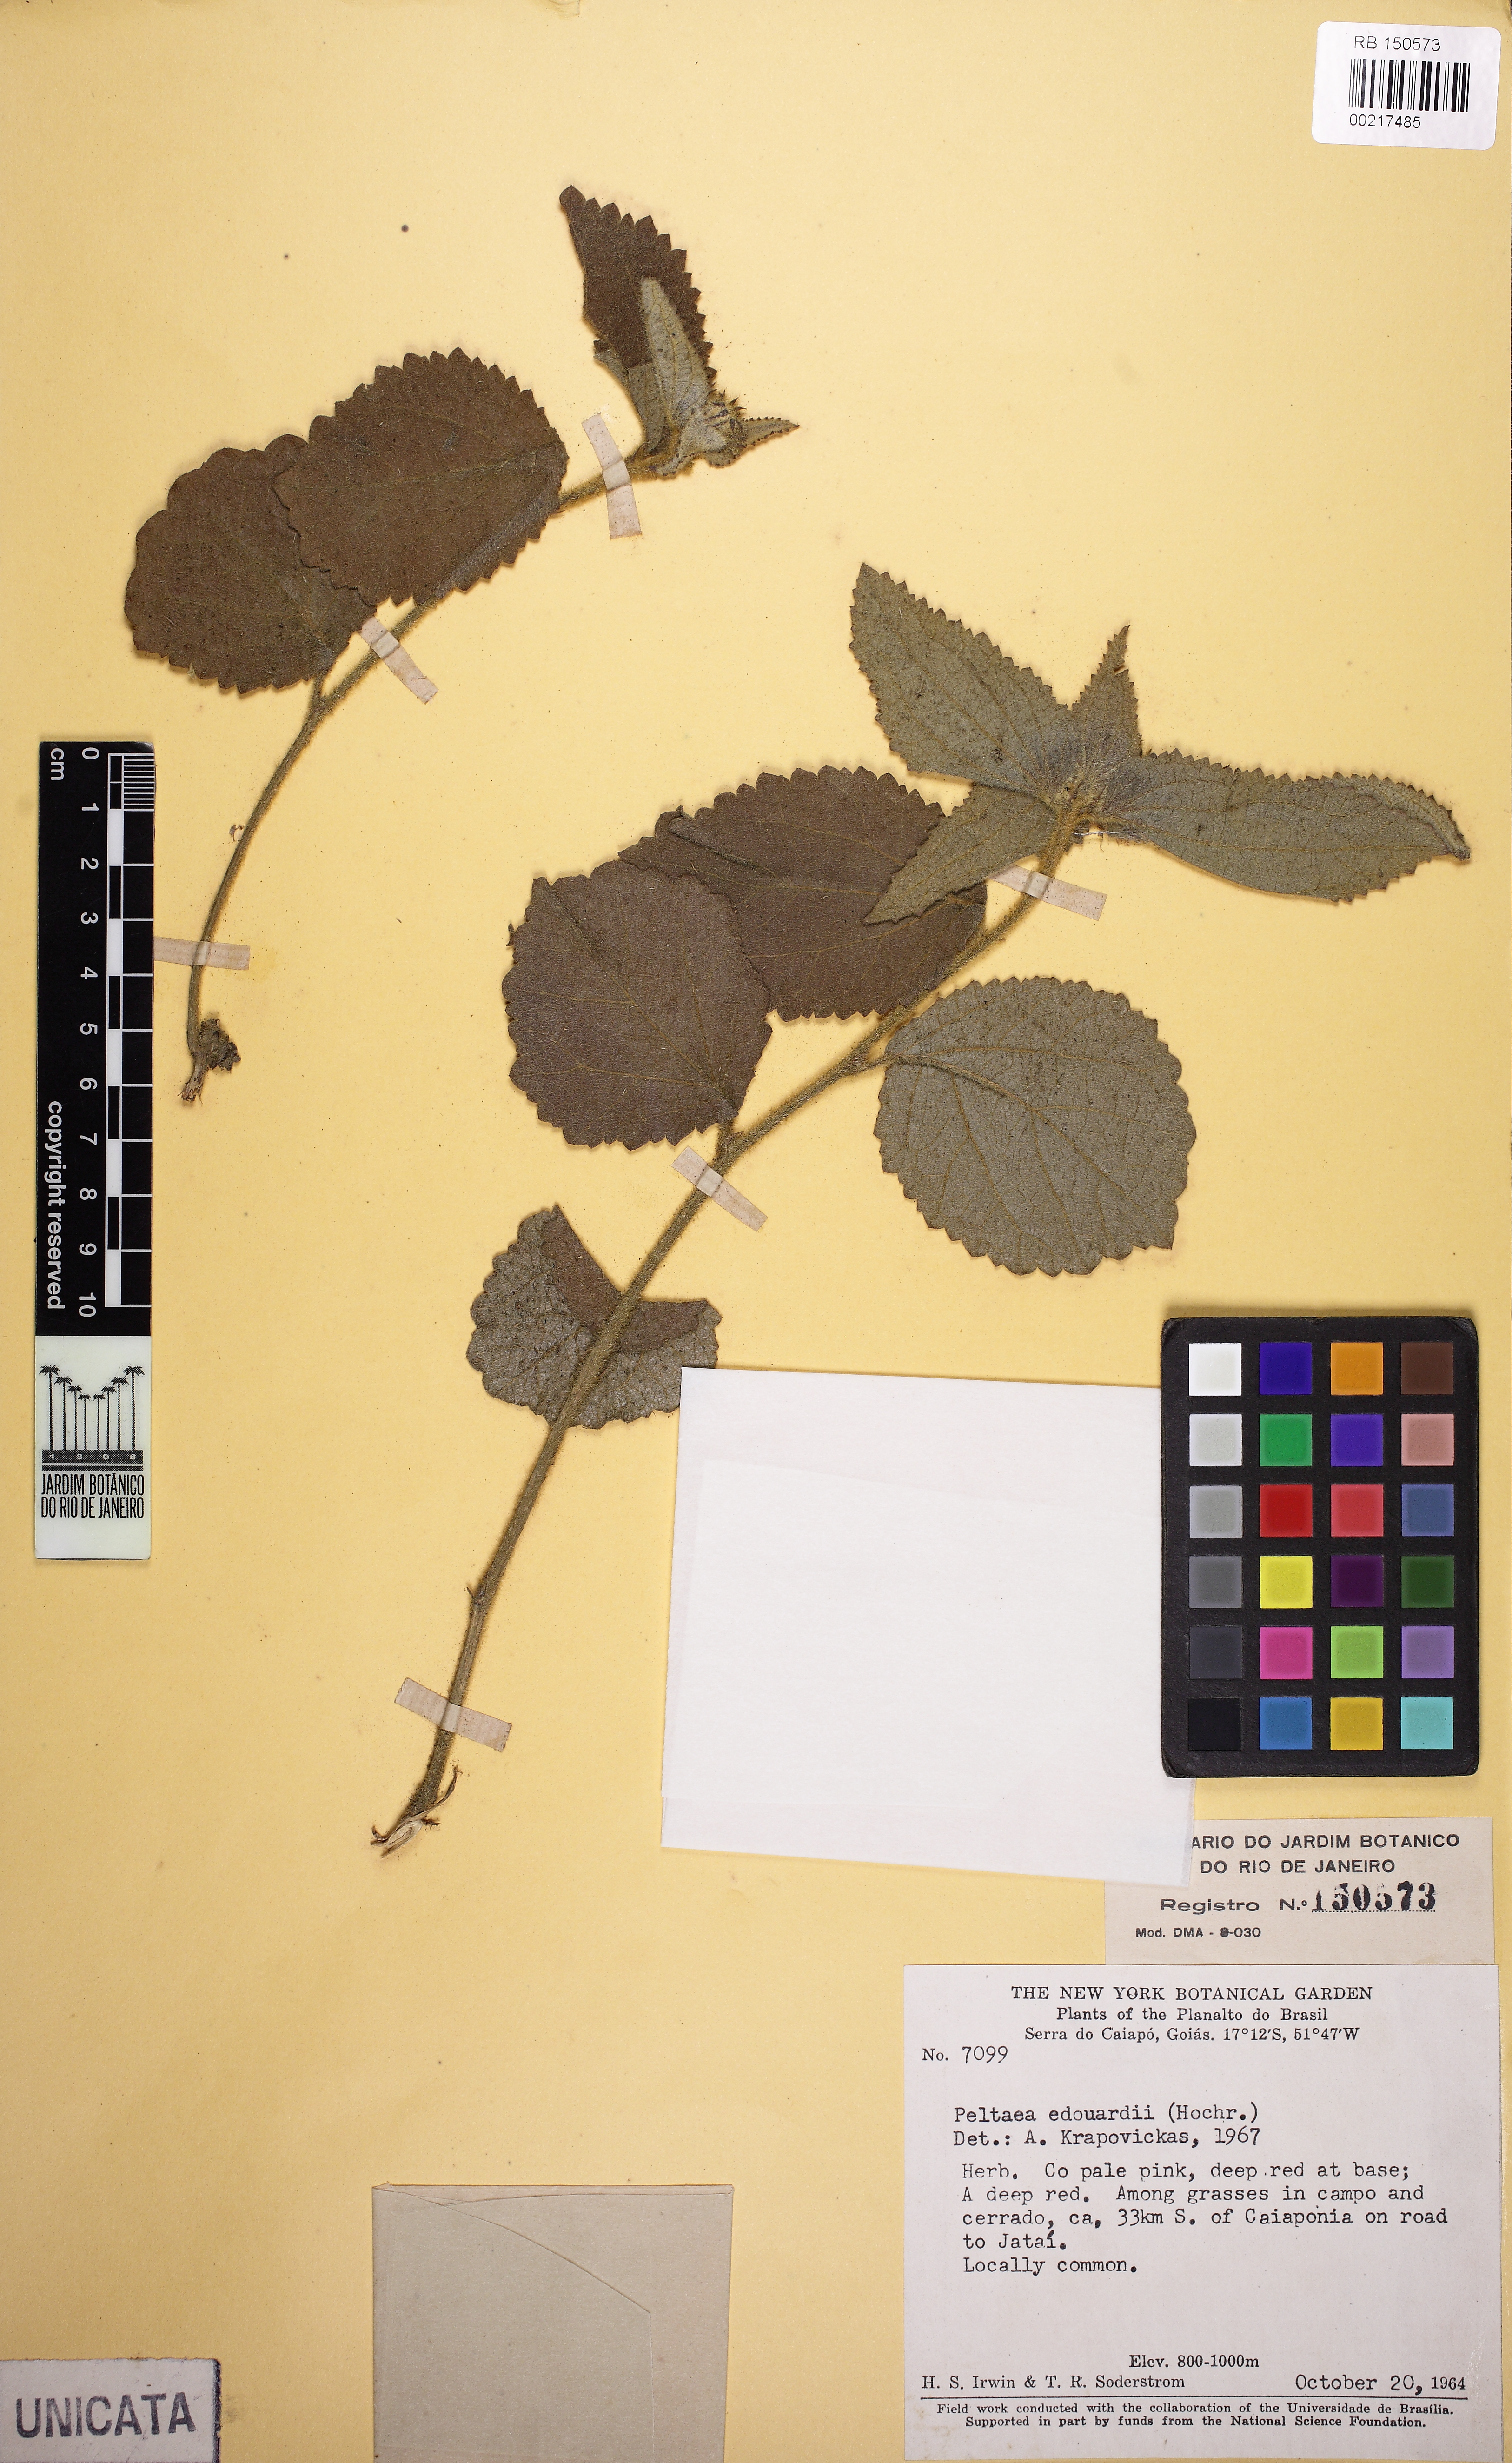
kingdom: Plantae
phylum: Tracheophyta
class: Magnoliopsida
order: Malvales
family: Malvaceae
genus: Peltaea
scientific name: Peltaea polymorpha
